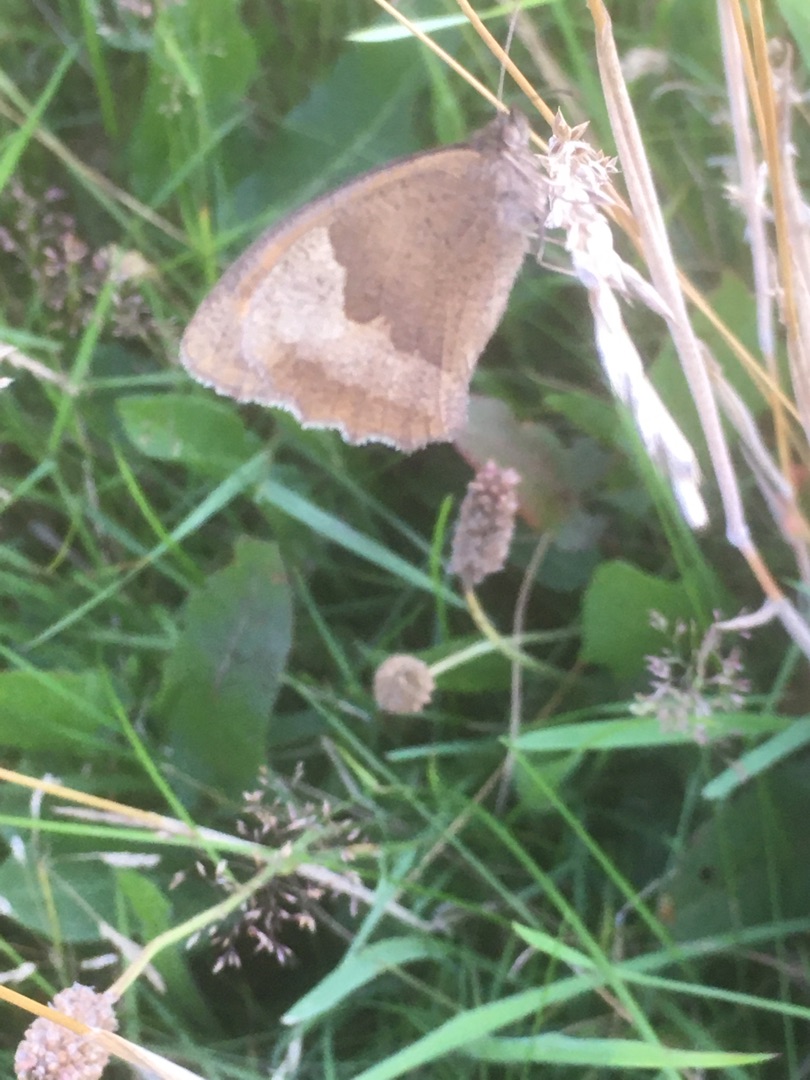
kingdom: Animalia
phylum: Arthropoda
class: Insecta
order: Lepidoptera
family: Nymphalidae
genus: Maniola
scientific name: Maniola jurtina
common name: Græsrandøje
